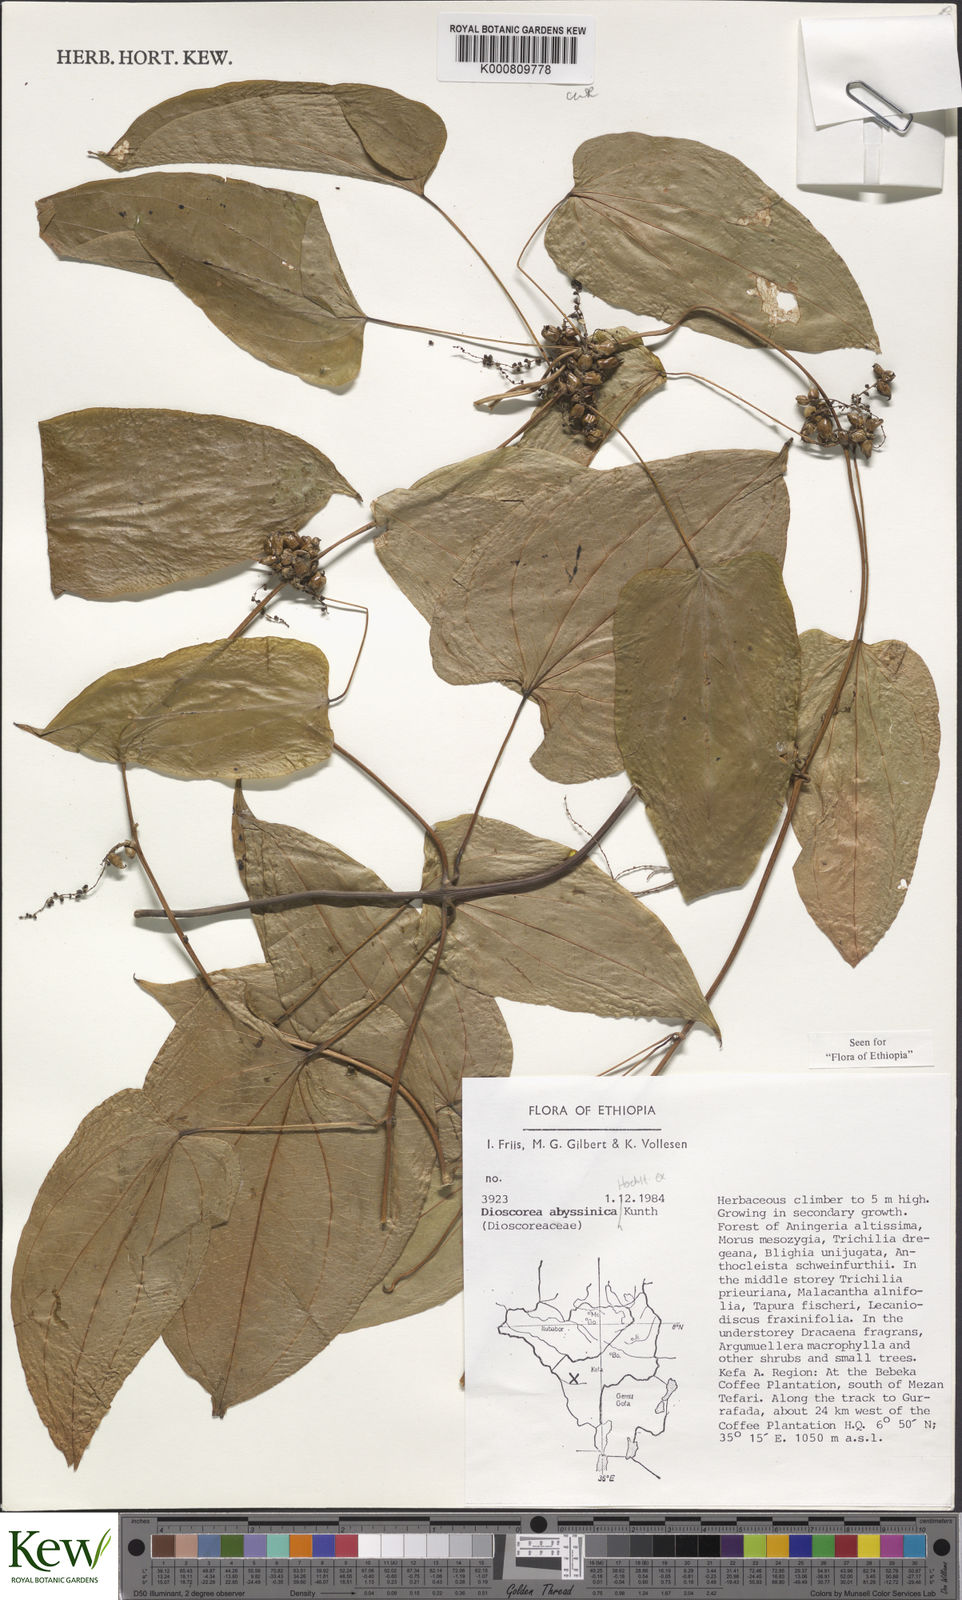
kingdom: Plantae
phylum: Tracheophyta
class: Liliopsida
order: Dioscoreales
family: Dioscoreaceae
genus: Dioscorea
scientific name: Dioscorea abyssinica
